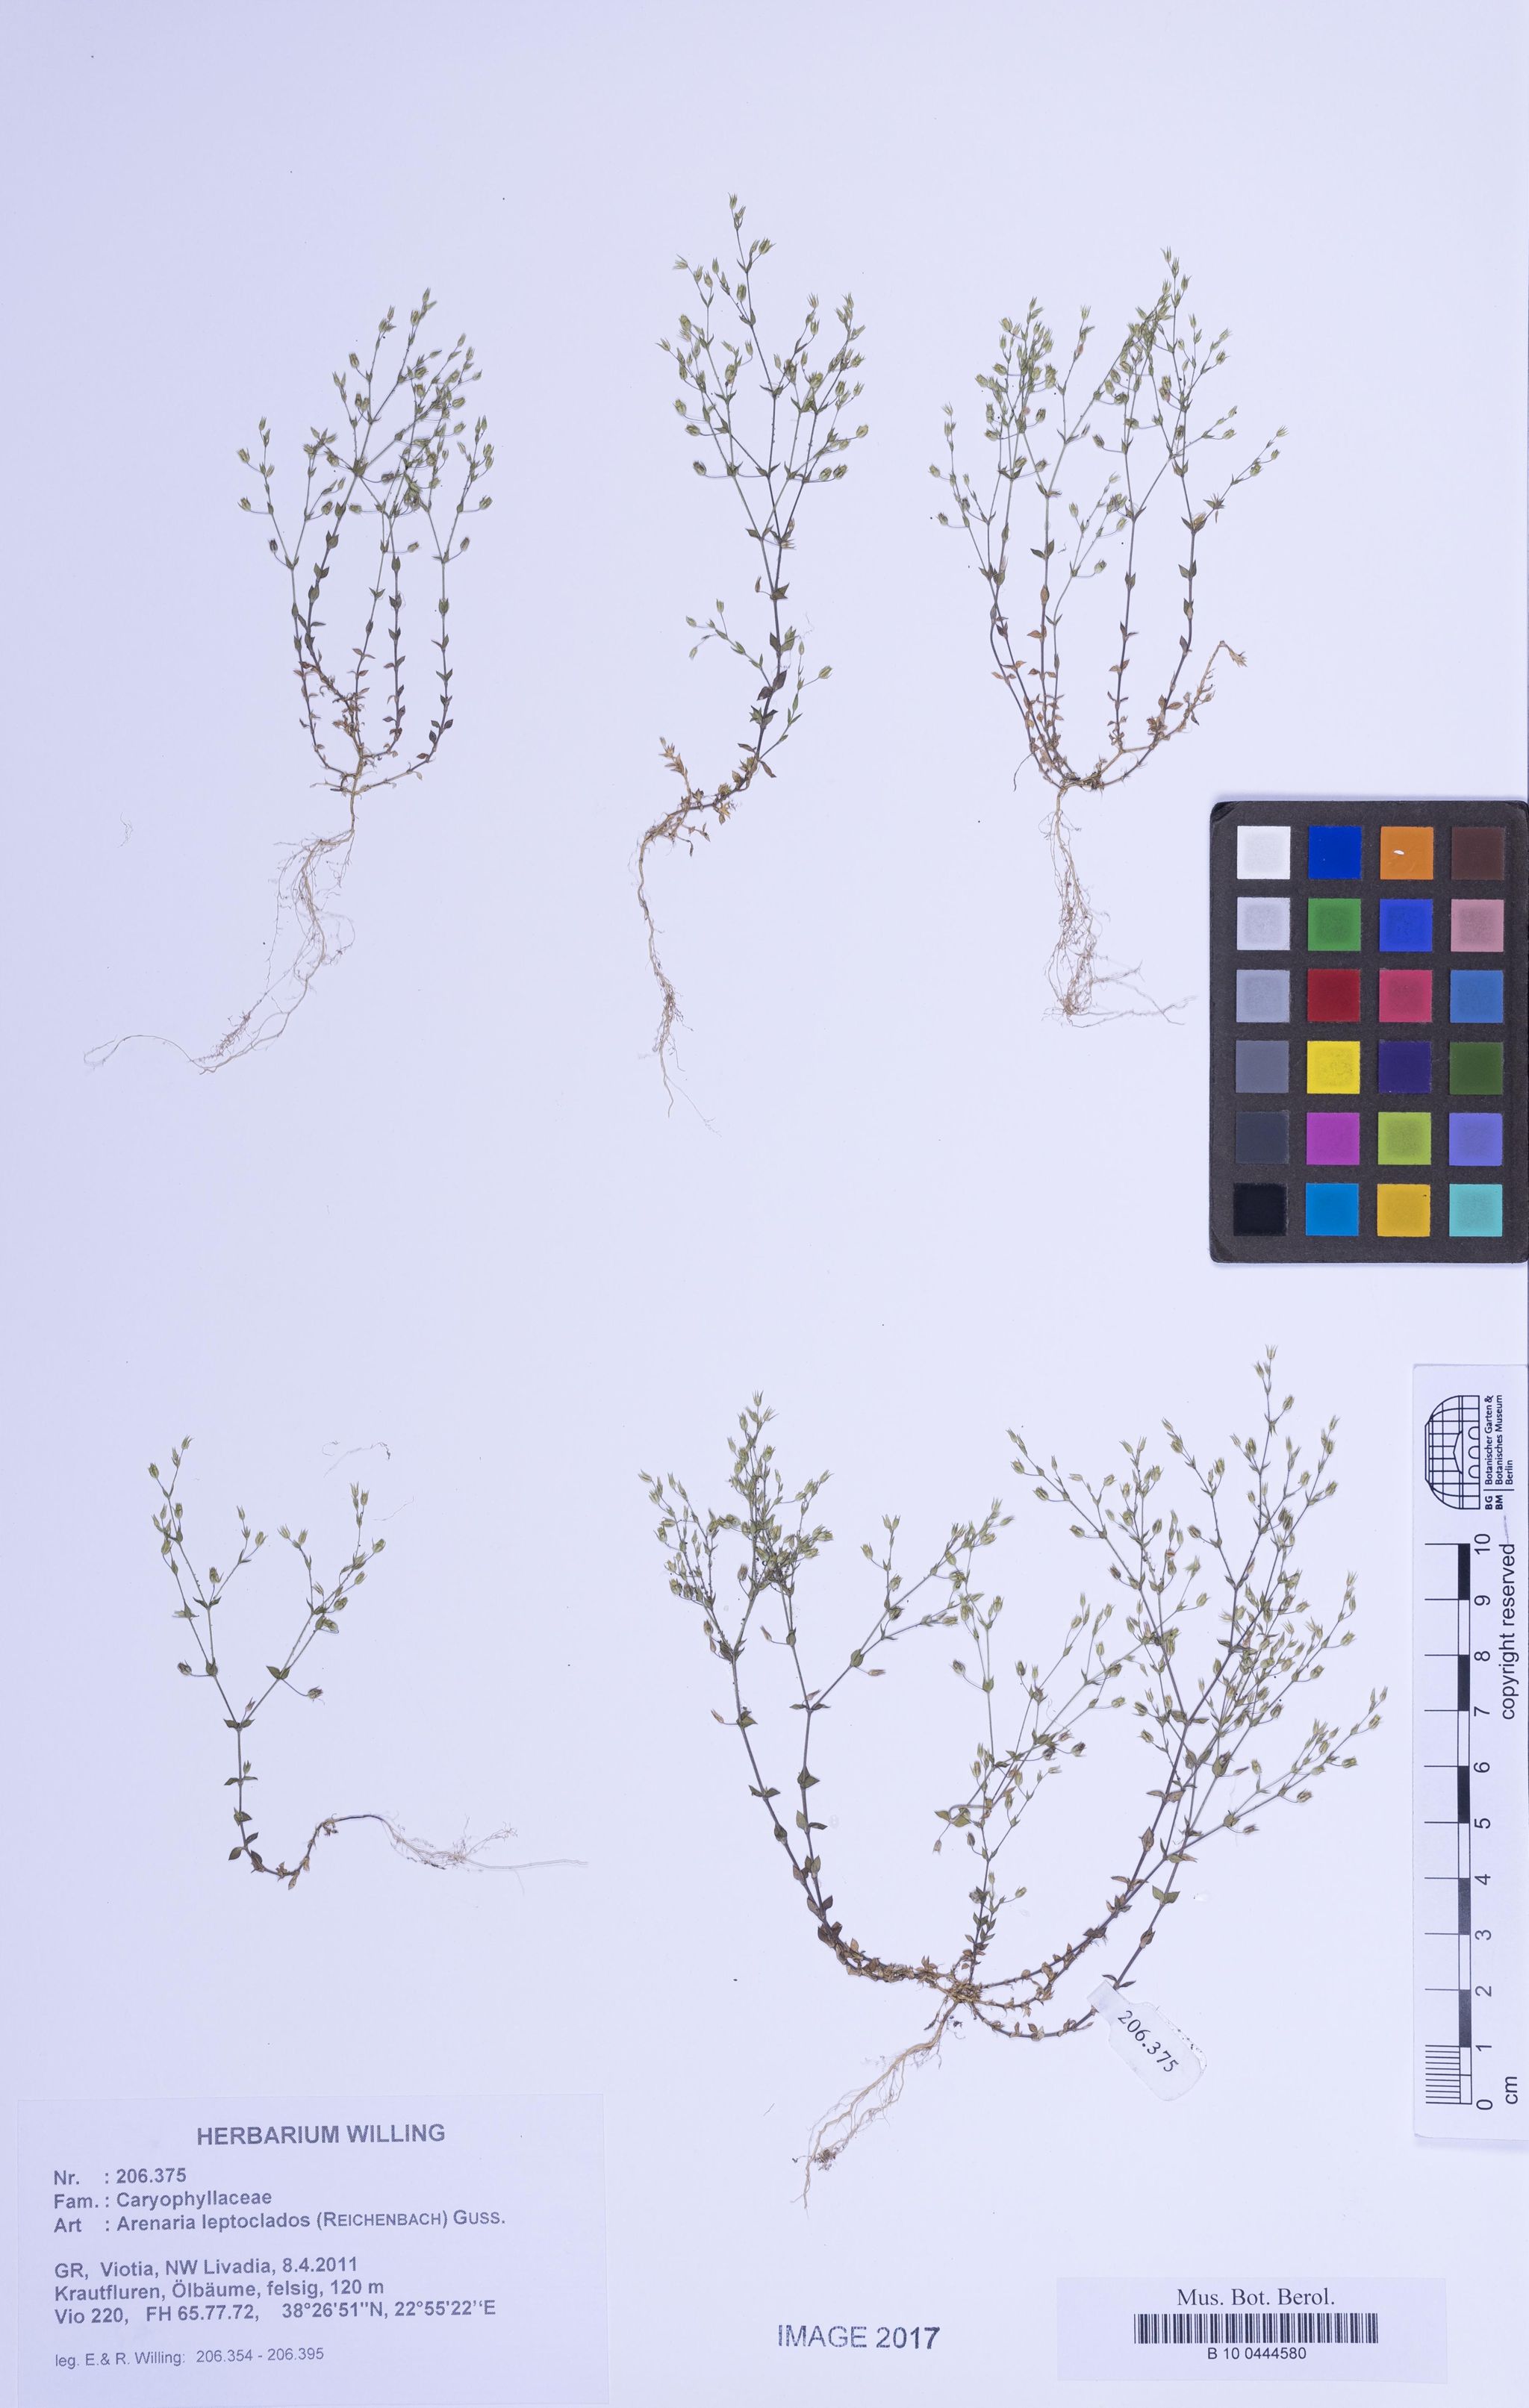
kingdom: Plantae
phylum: Tracheophyta
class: Magnoliopsida
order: Caryophyllales
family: Caryophyllaceae
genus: Arenaria
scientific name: Arenaria leptoclados
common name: Thyme-leaved sandwort
